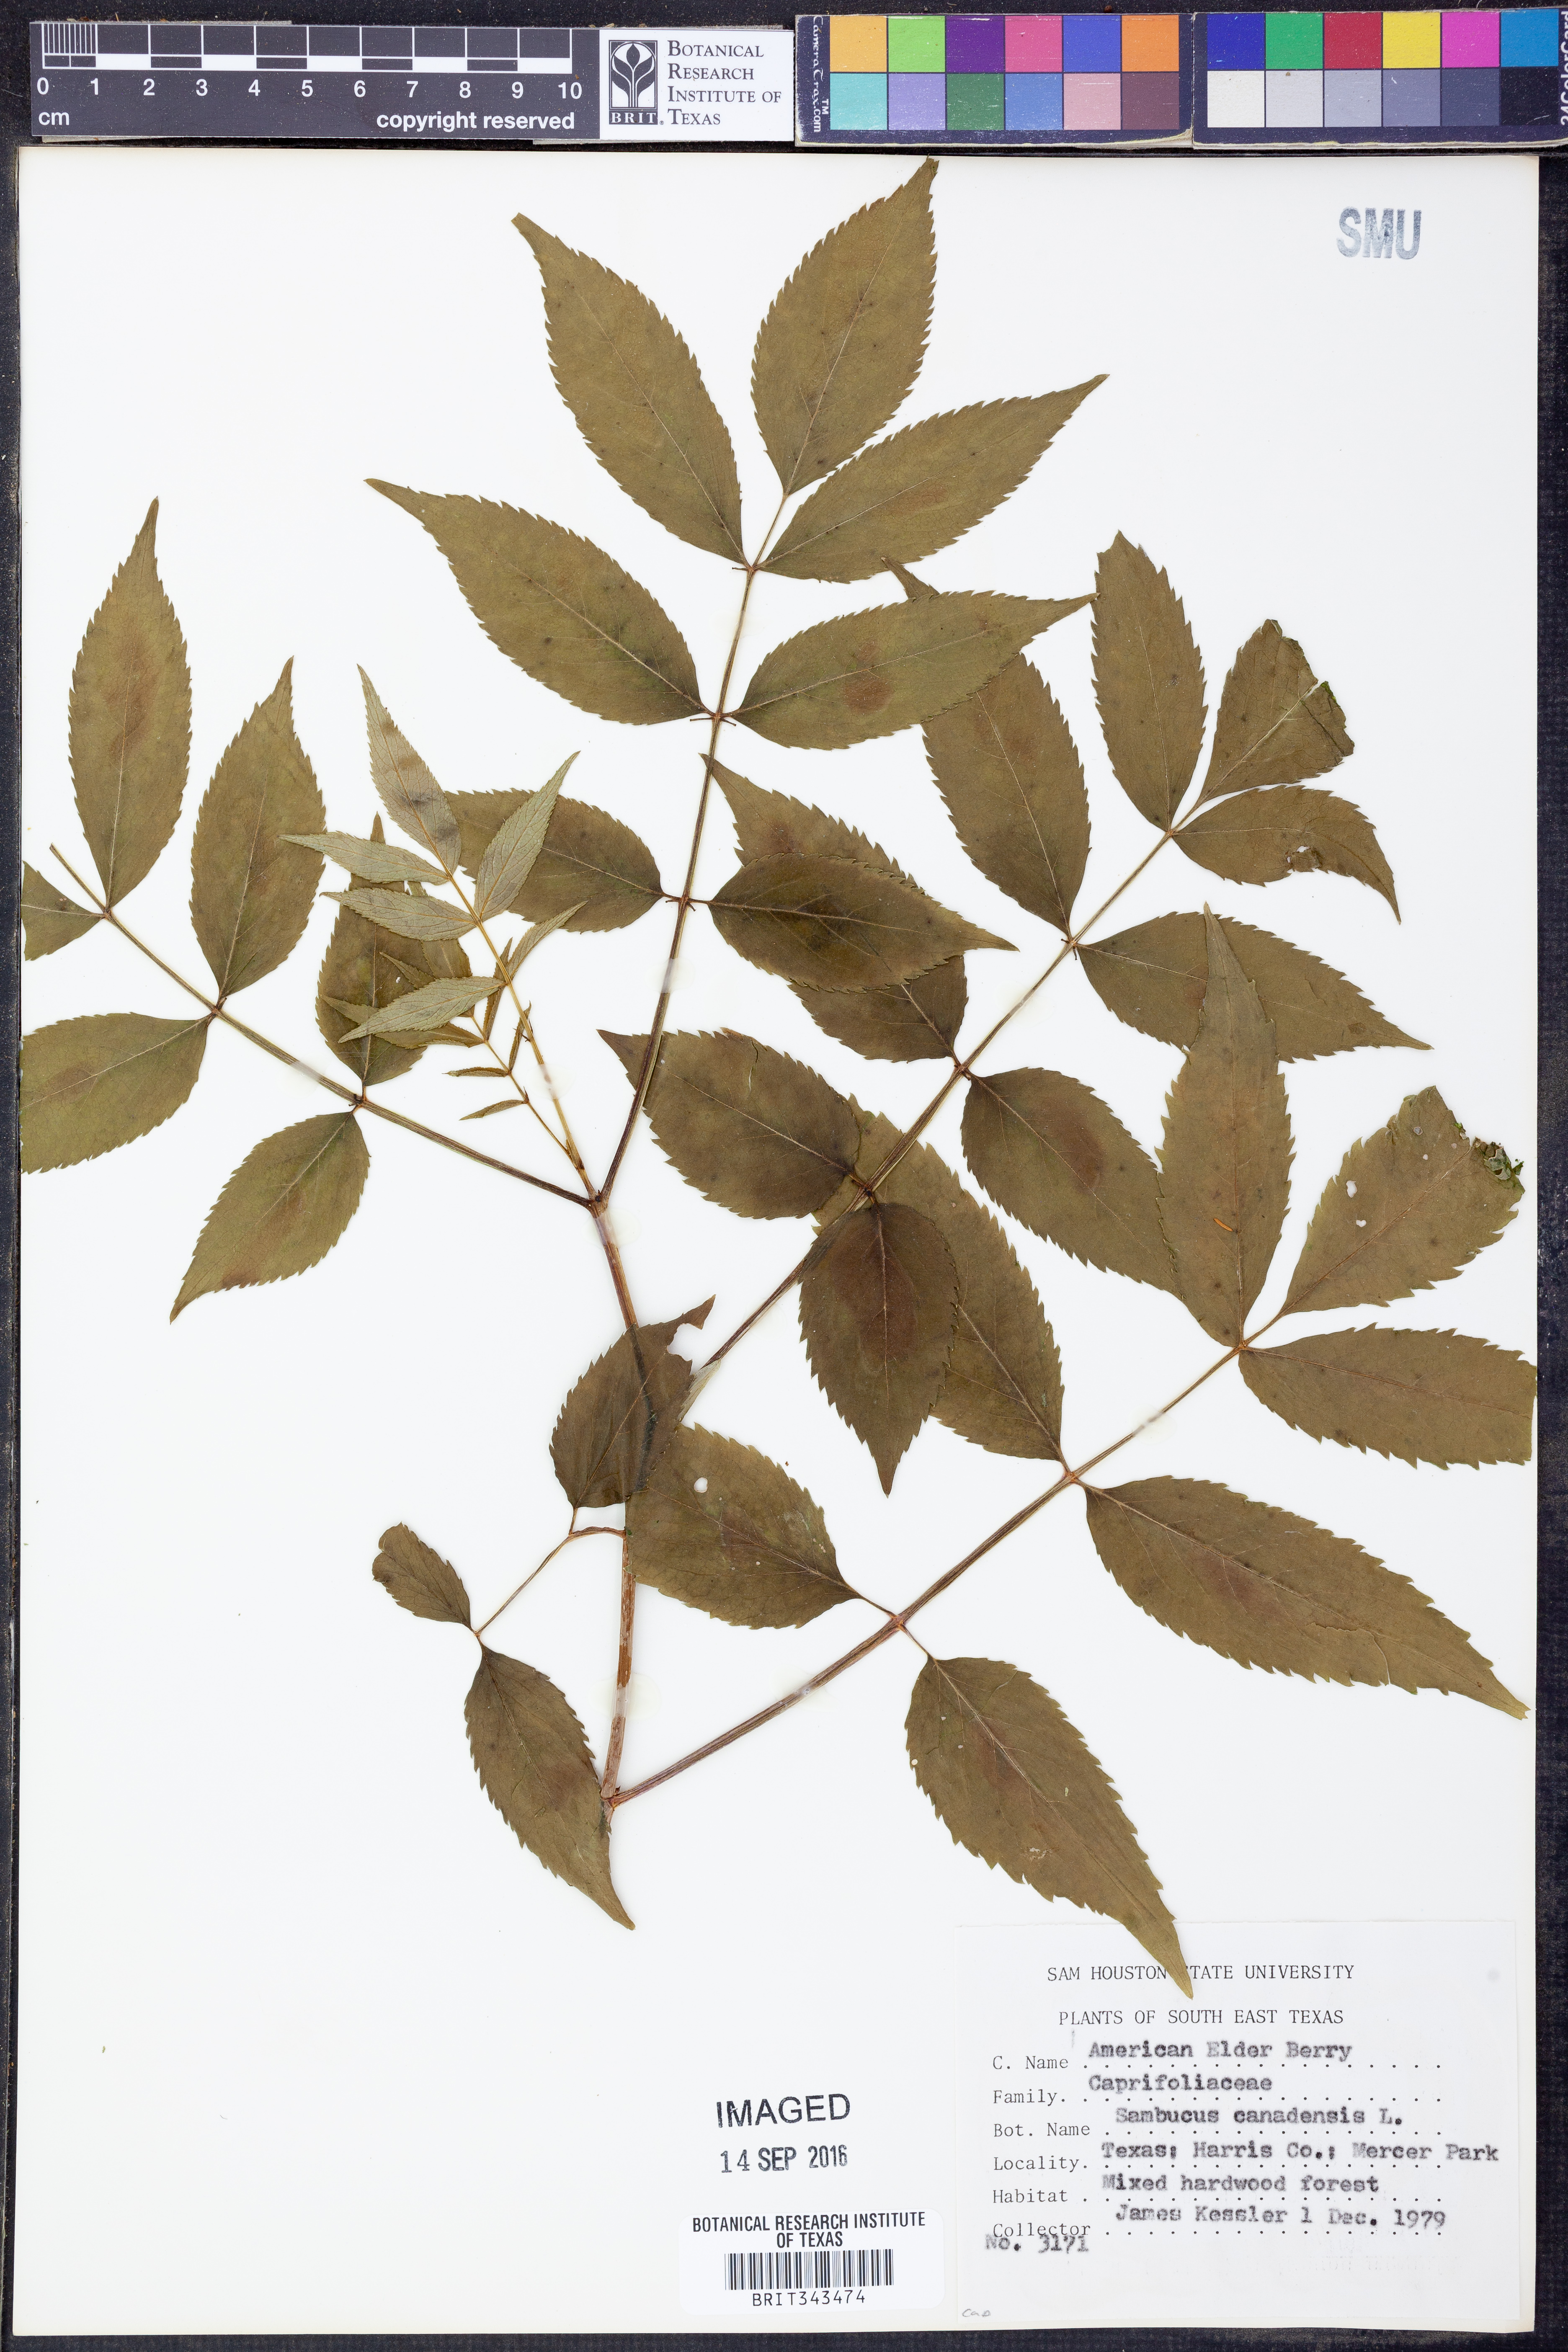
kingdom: Plantae
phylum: Tracheophyta
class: Magnoliopsida
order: Dipsacales
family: Viburnaceae
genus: Sambucus
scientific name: Sambucus canadensis
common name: American elder
